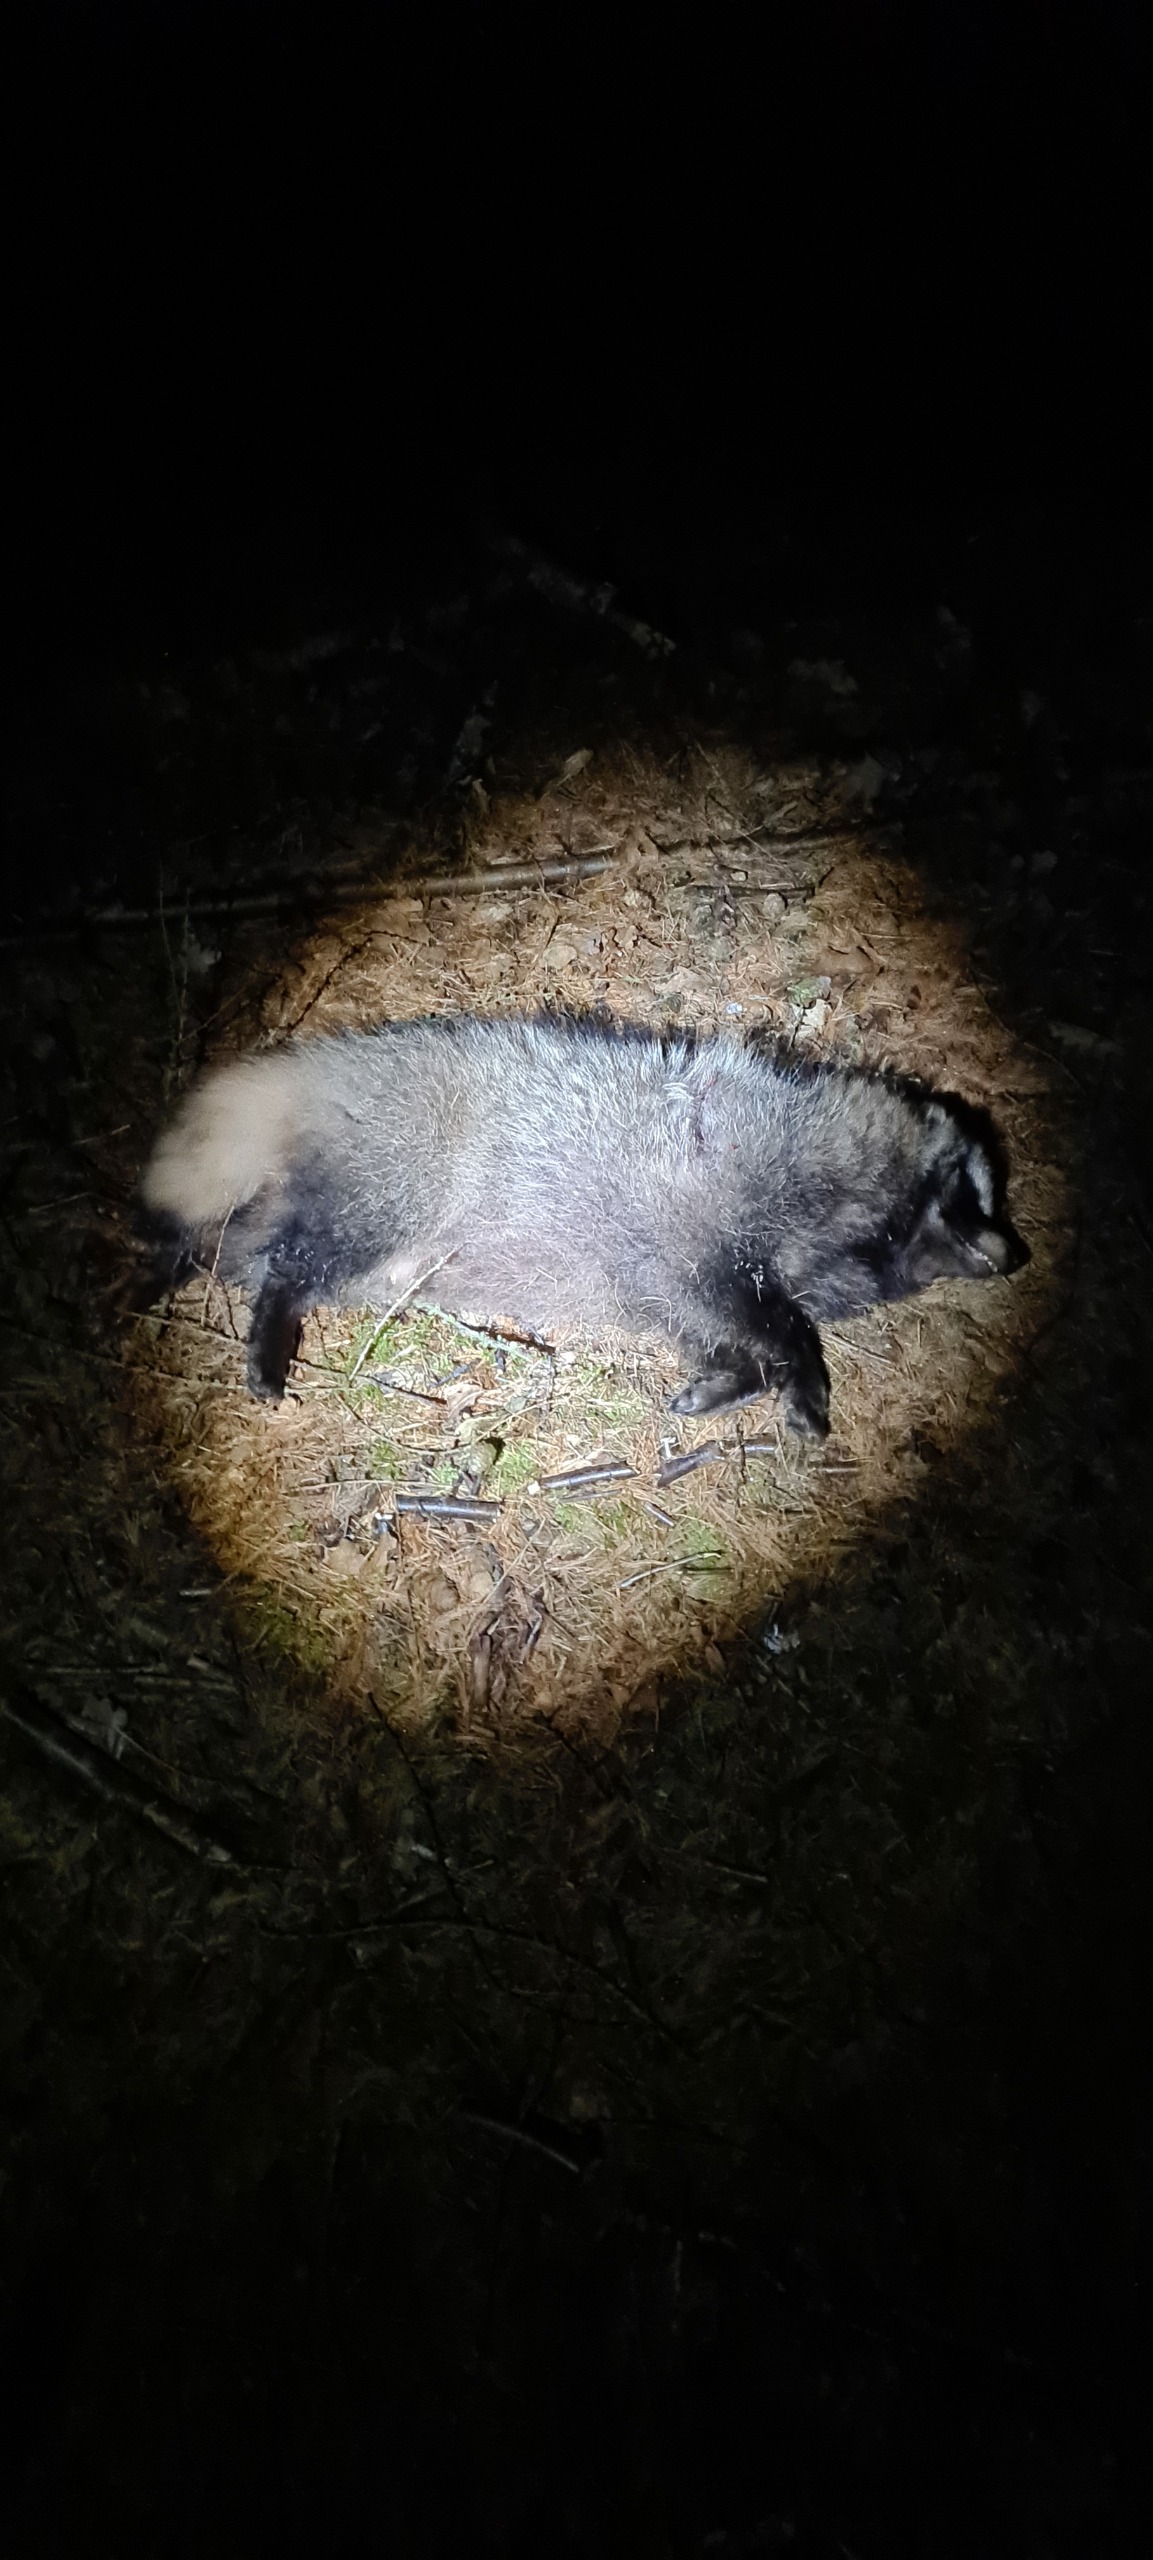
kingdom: Animalia
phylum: Chordata
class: Mammalia
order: Carnivora
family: Canidae
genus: Nyctereutes
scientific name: Nyctereutes procyonoides
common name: Mårhund
